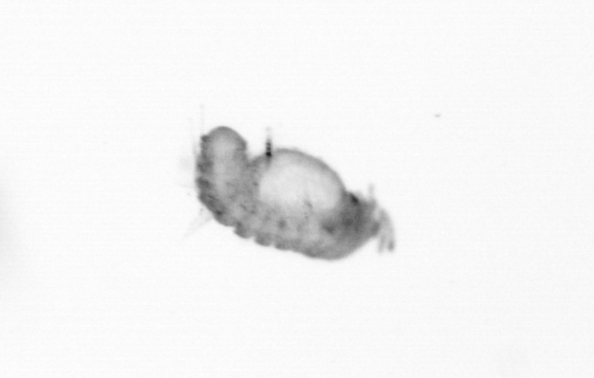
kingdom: Animalia
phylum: Annelida
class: Polychaeta
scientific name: Polychaeta
